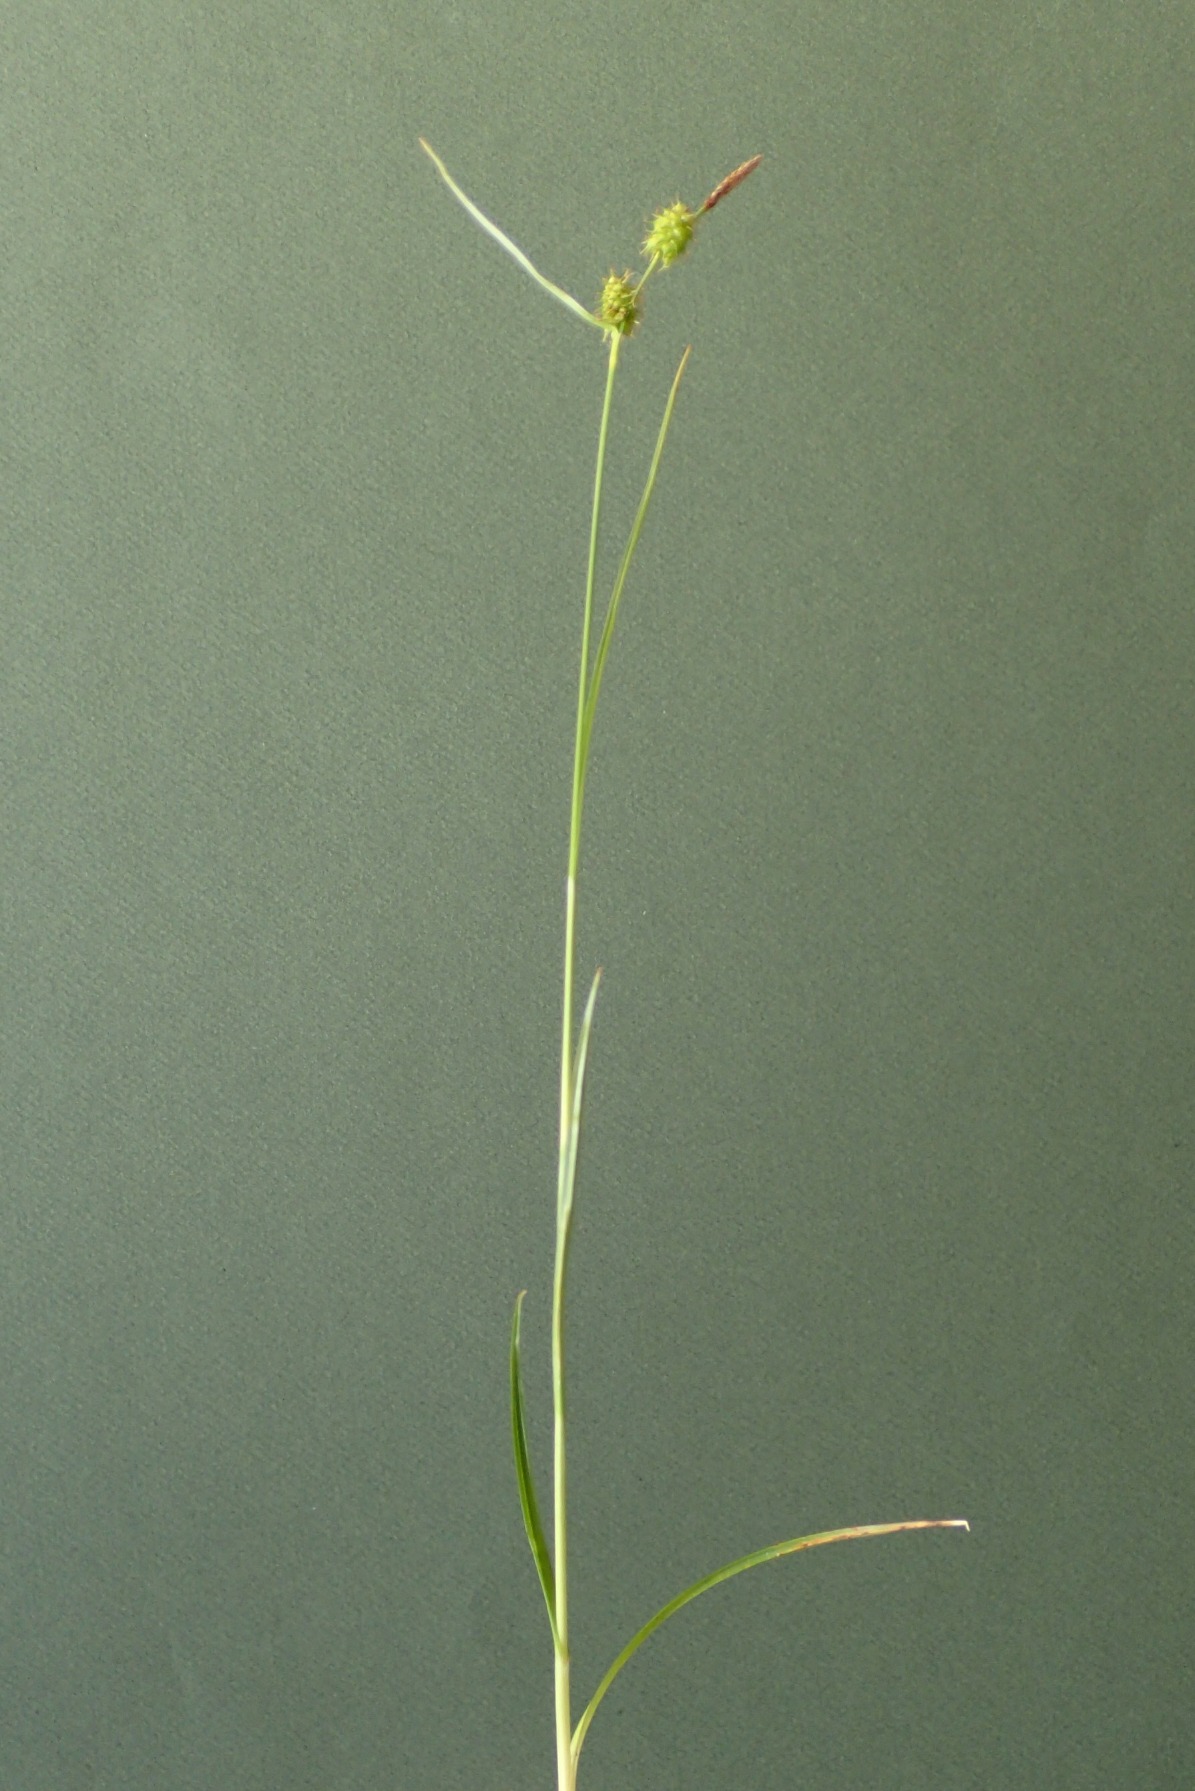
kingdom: Plantae
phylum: Tracheophyta
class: Liliopsida
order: Poales
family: Cyperaceae
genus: Carex
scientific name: Carex lepidocarpa
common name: Krognæb-star
